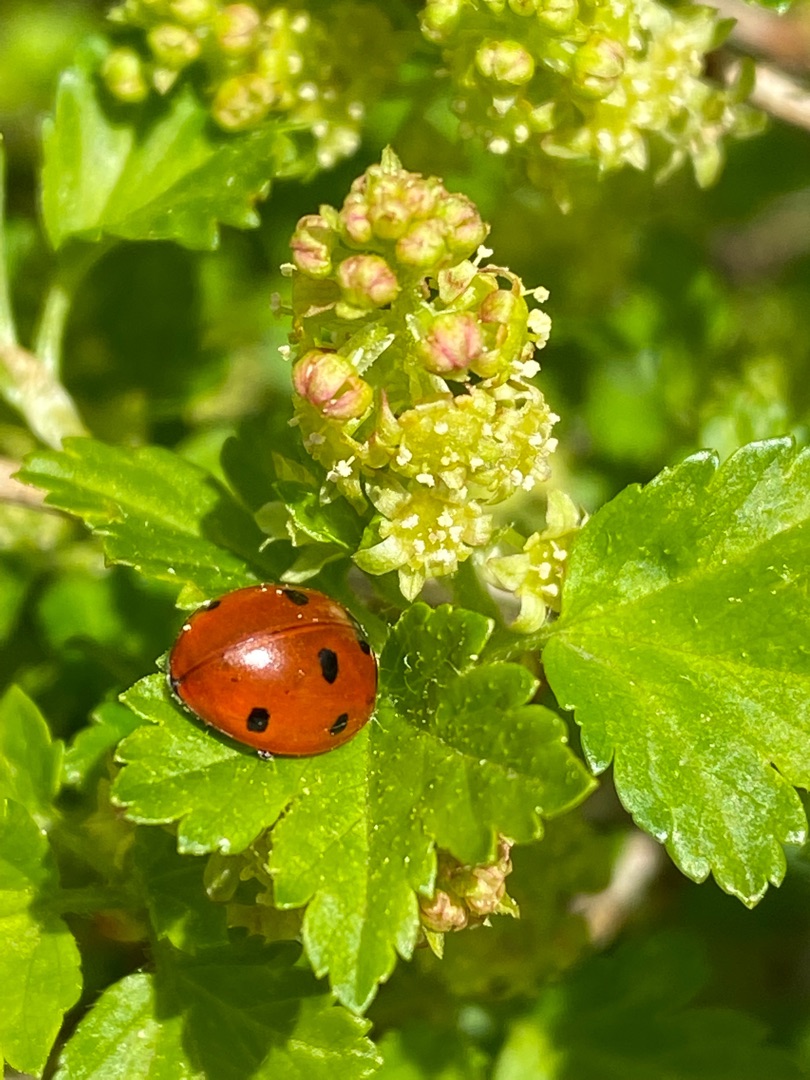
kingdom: Animalia
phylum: Arthropoda
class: Insecta
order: Coleoptera
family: Coccinellidae
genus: Coccinella
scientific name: Coccinella septempunctata
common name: Syvplettet mariehøne
